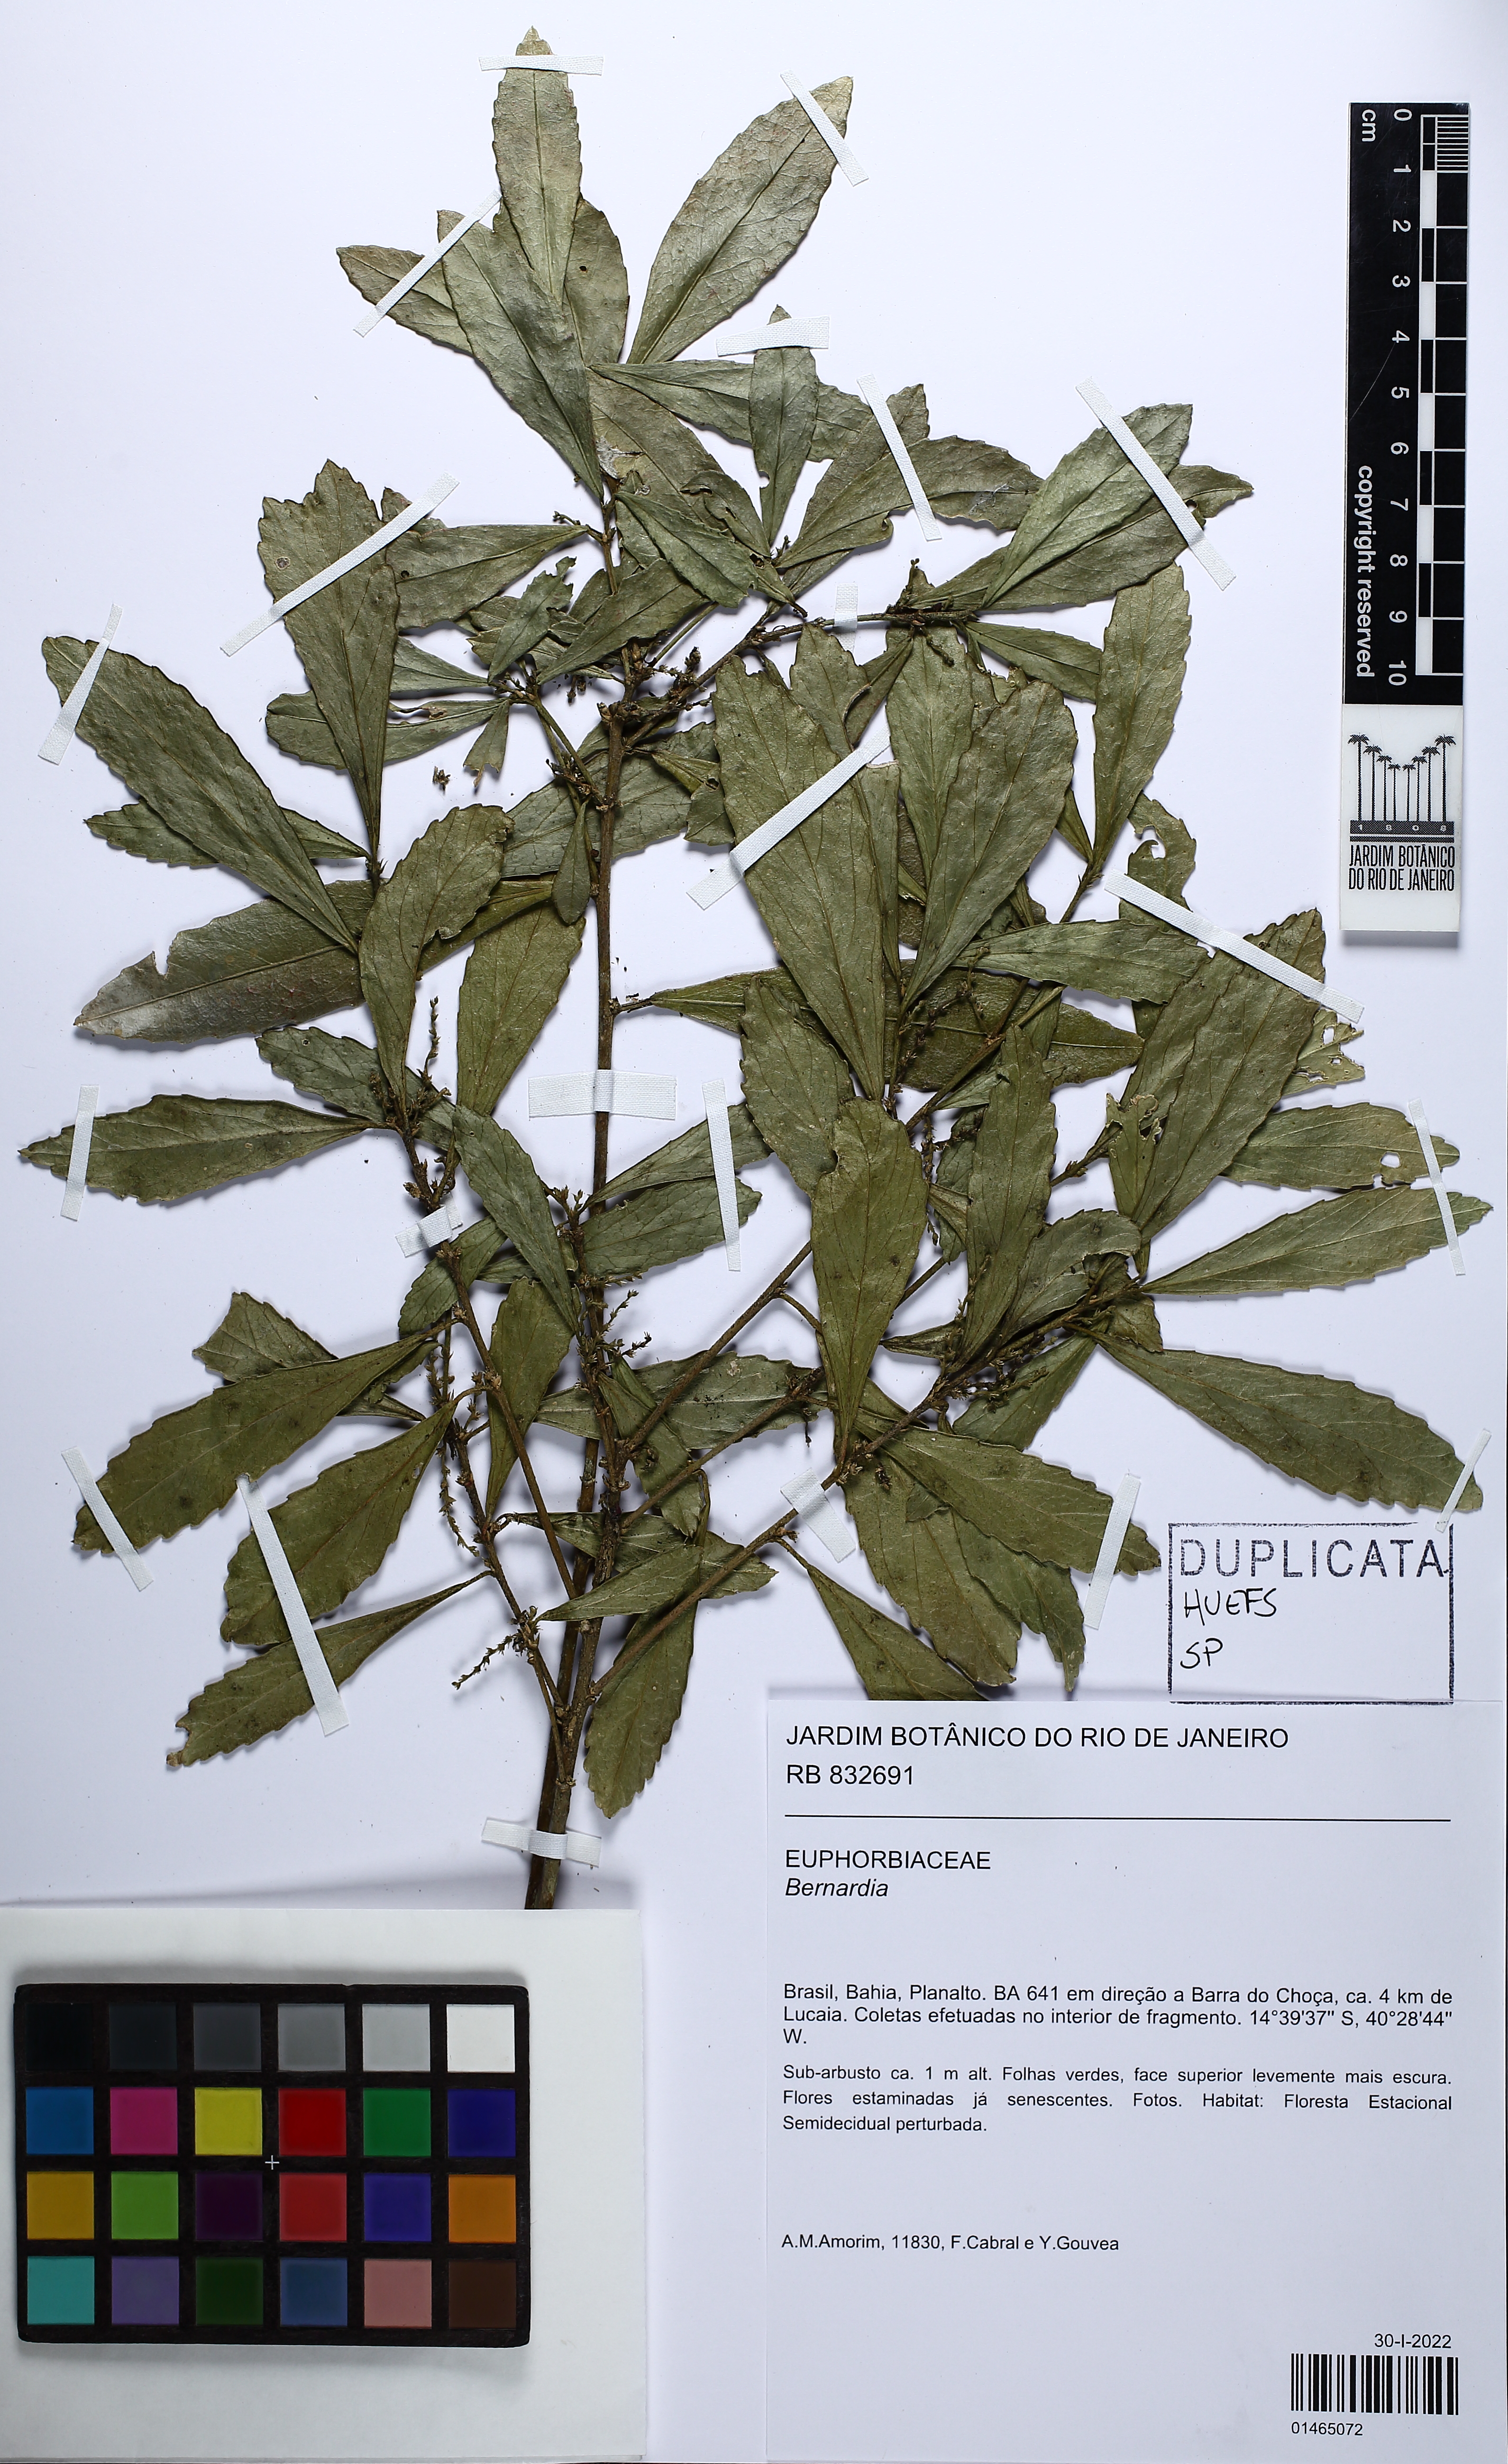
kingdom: Plantae
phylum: Tracheophyta
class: Magnoliopsida
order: Malpighiales
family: Euphorbiaceae
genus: Bernardia
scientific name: Bernardia
